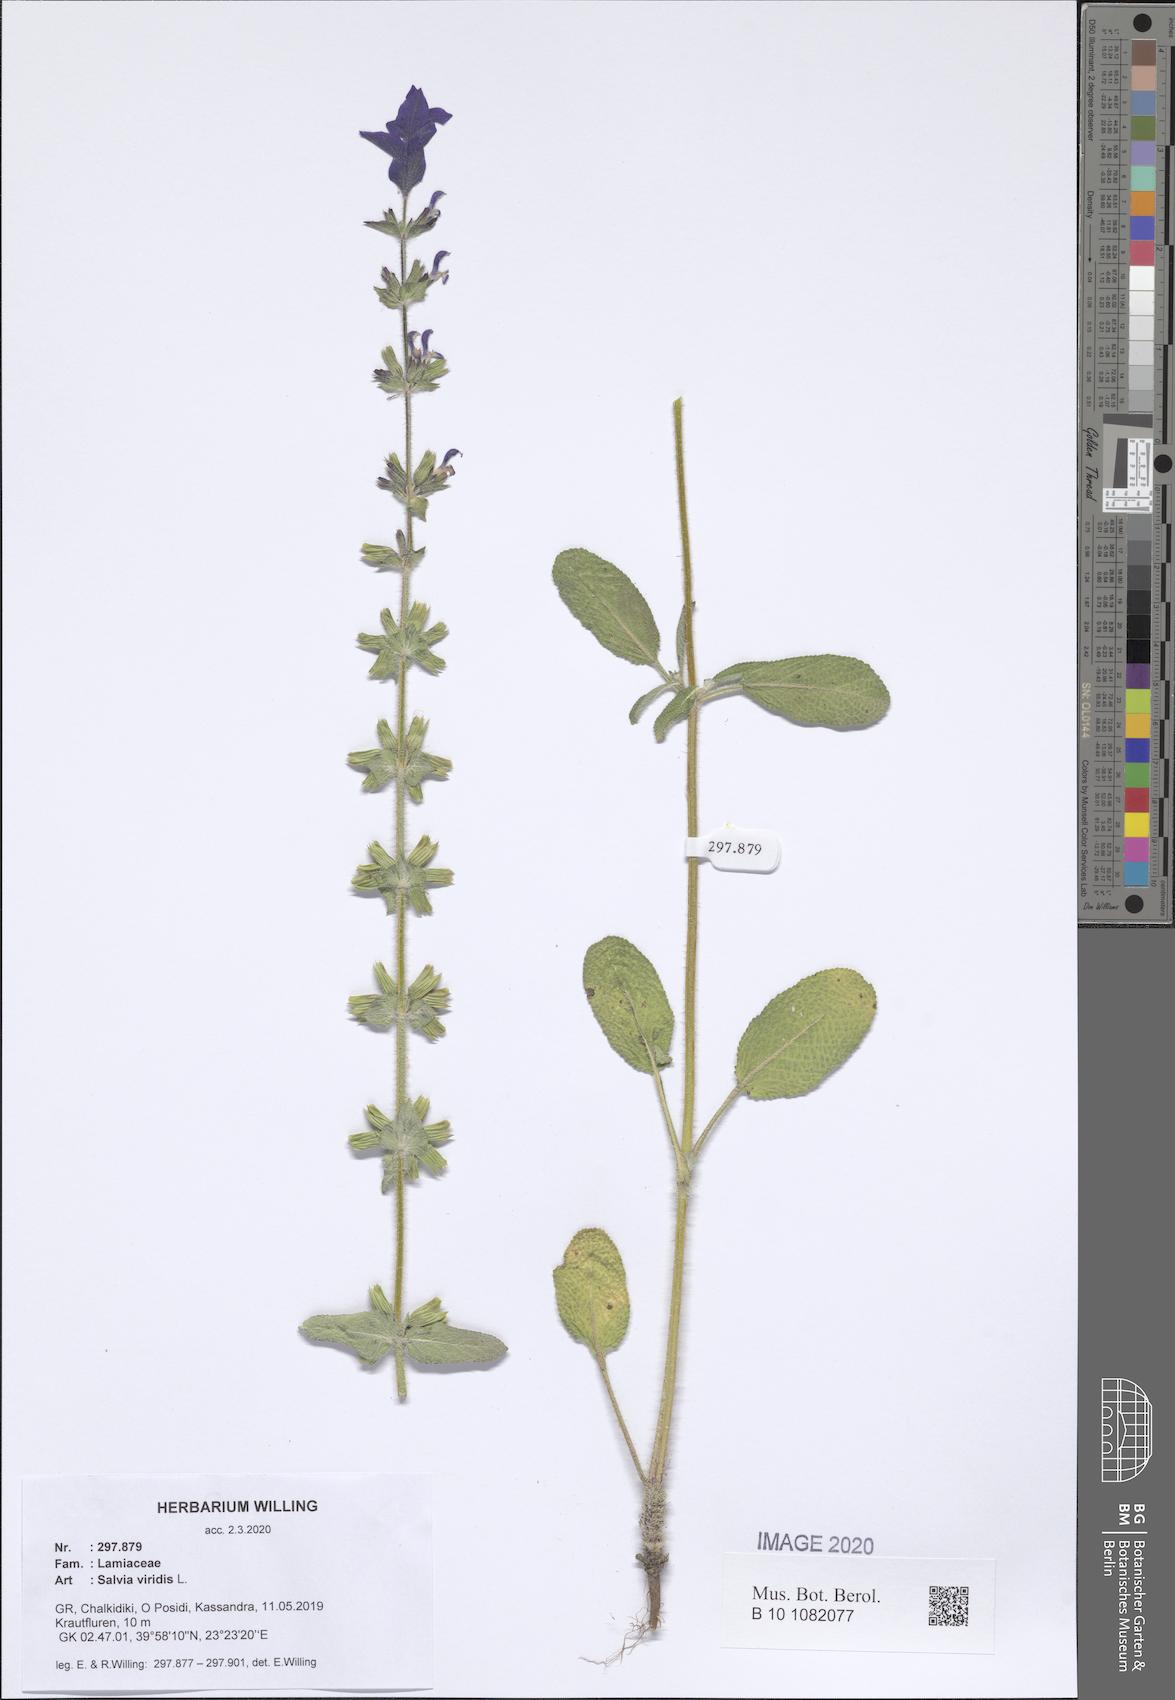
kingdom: Plantae
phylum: Tracheophyta
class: Magnoliopsida
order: Lamiales
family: Lamiaceae
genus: Salvia
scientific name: Salvia viridis
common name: Annual clary
